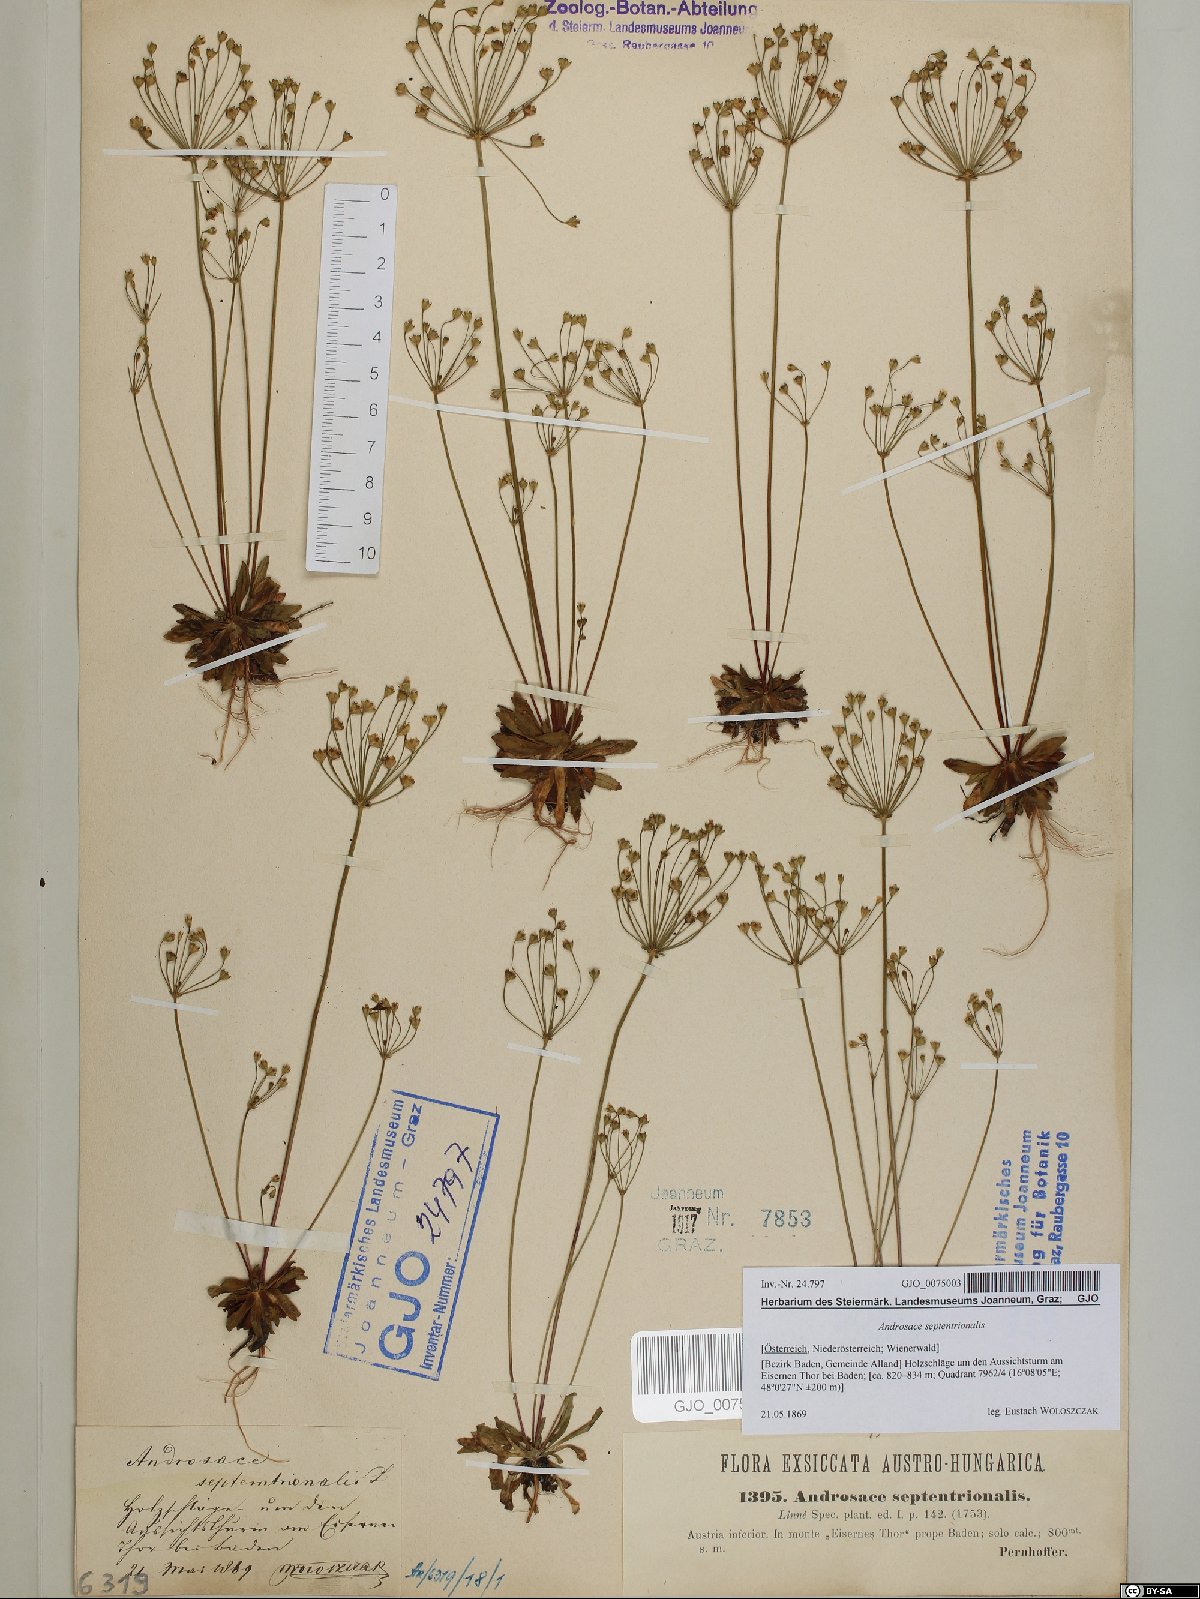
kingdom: Plantae
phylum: Tracheophyta
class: Magnoliopsida
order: Ericales
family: Primulaceae
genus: Androsace
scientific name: Androsace septentrionalis
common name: Hairy northern fairy-candelabra
